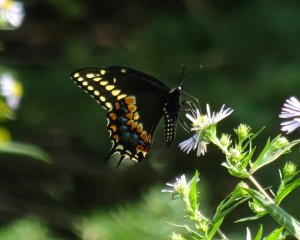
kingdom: Animalia
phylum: Arthropoda
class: Insecta
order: Lepidoptera
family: Papilionidae
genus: Papilio
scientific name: Papilio polyxenes
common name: Black Swallowtail
